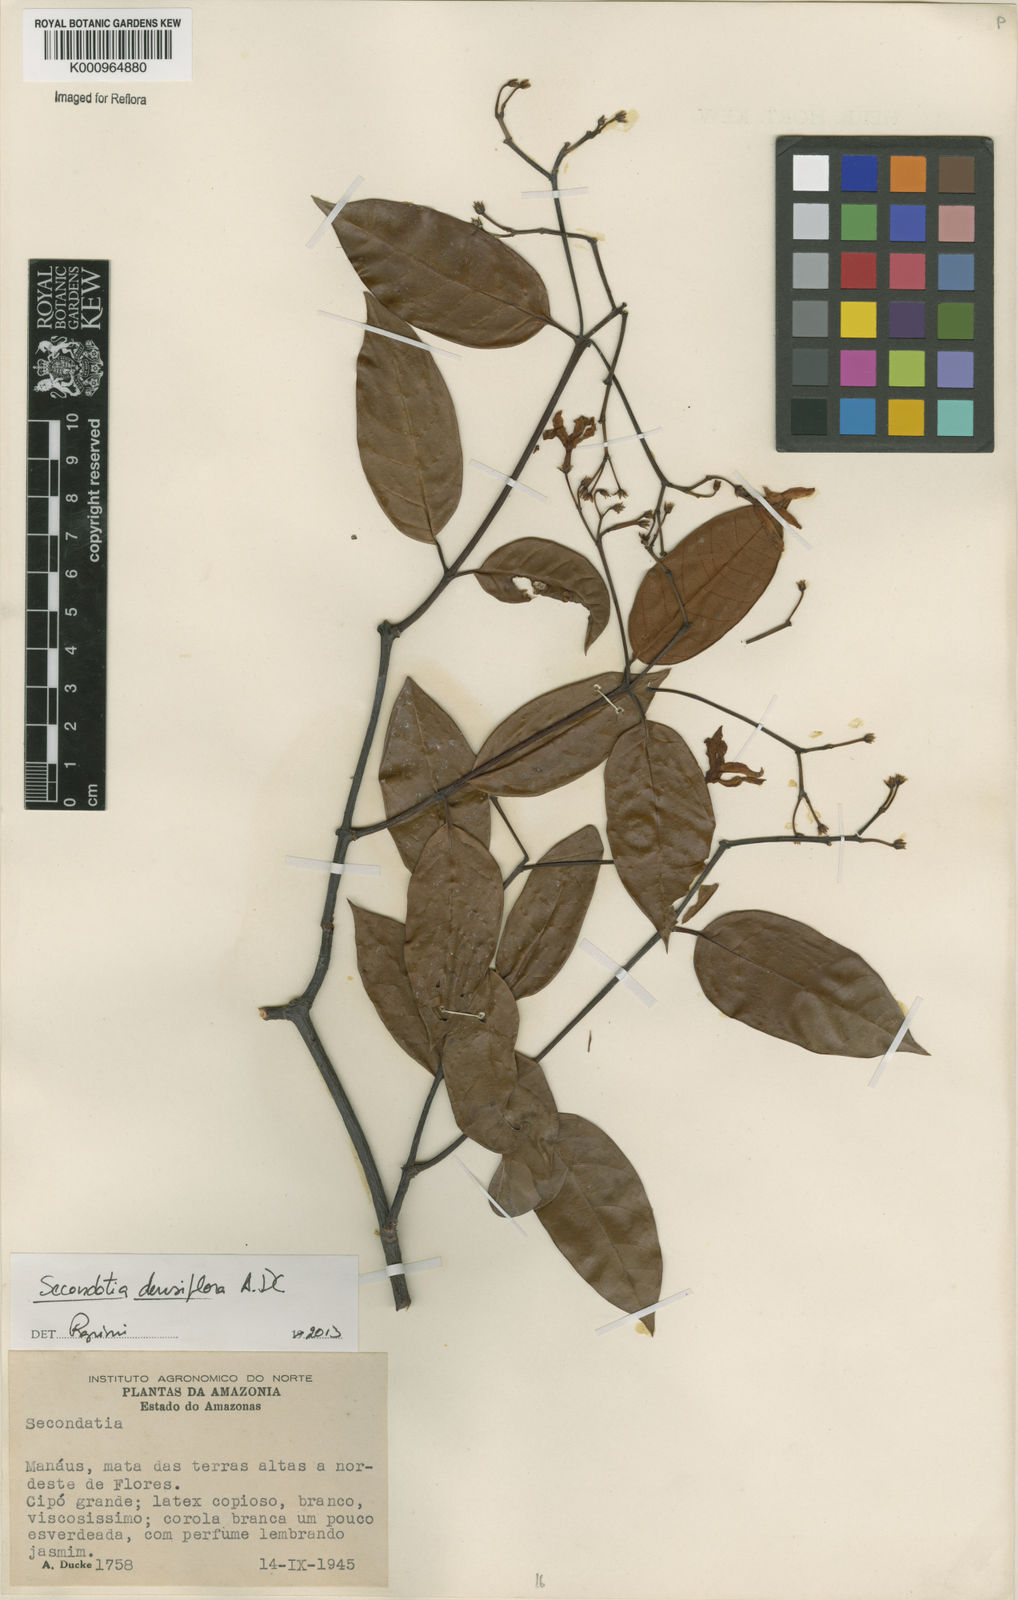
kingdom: Plantae
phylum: Tracheophyta
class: Magnoliopsida
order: Gentianales
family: Apocynaceae
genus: Secondatia
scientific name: Secondatia densiflora
